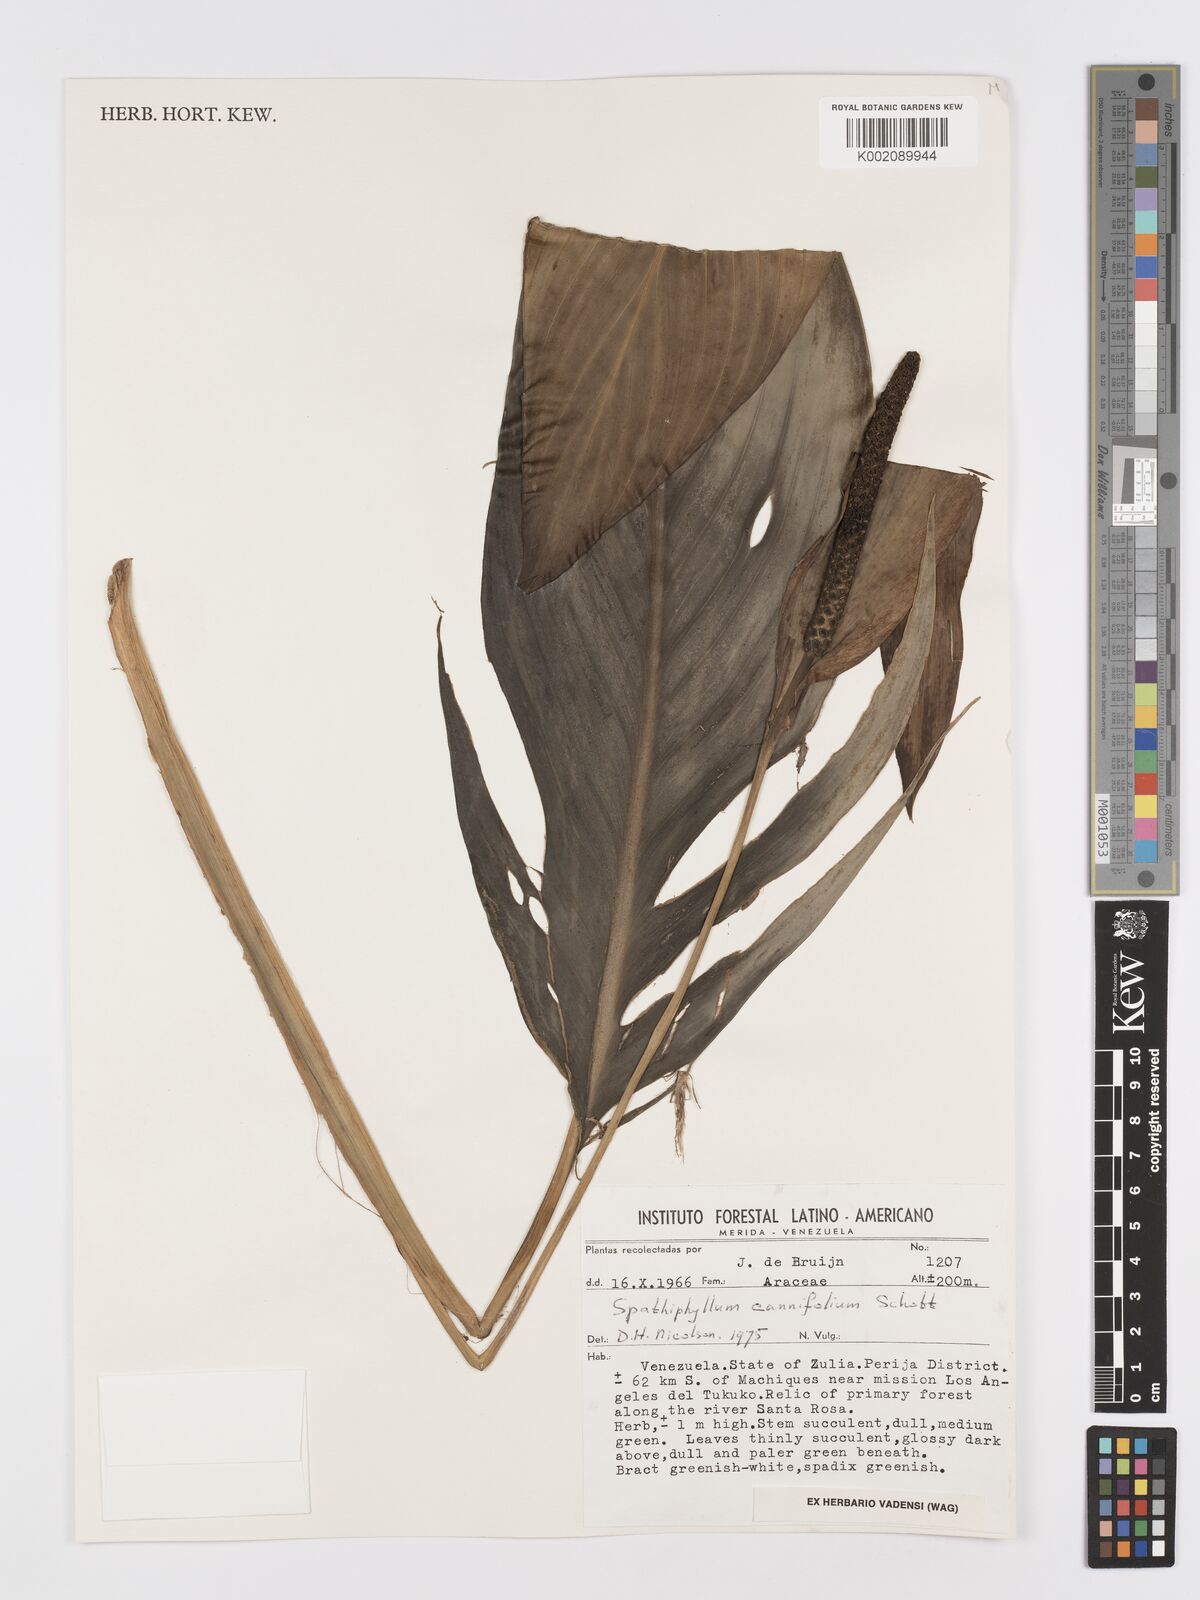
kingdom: Plantae
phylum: Tracheophyta
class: Liliopsida
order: Alismatales
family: Araceae
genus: Spathiphyllum
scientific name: Spathiphyllum cannifolium
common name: Spatheflower
